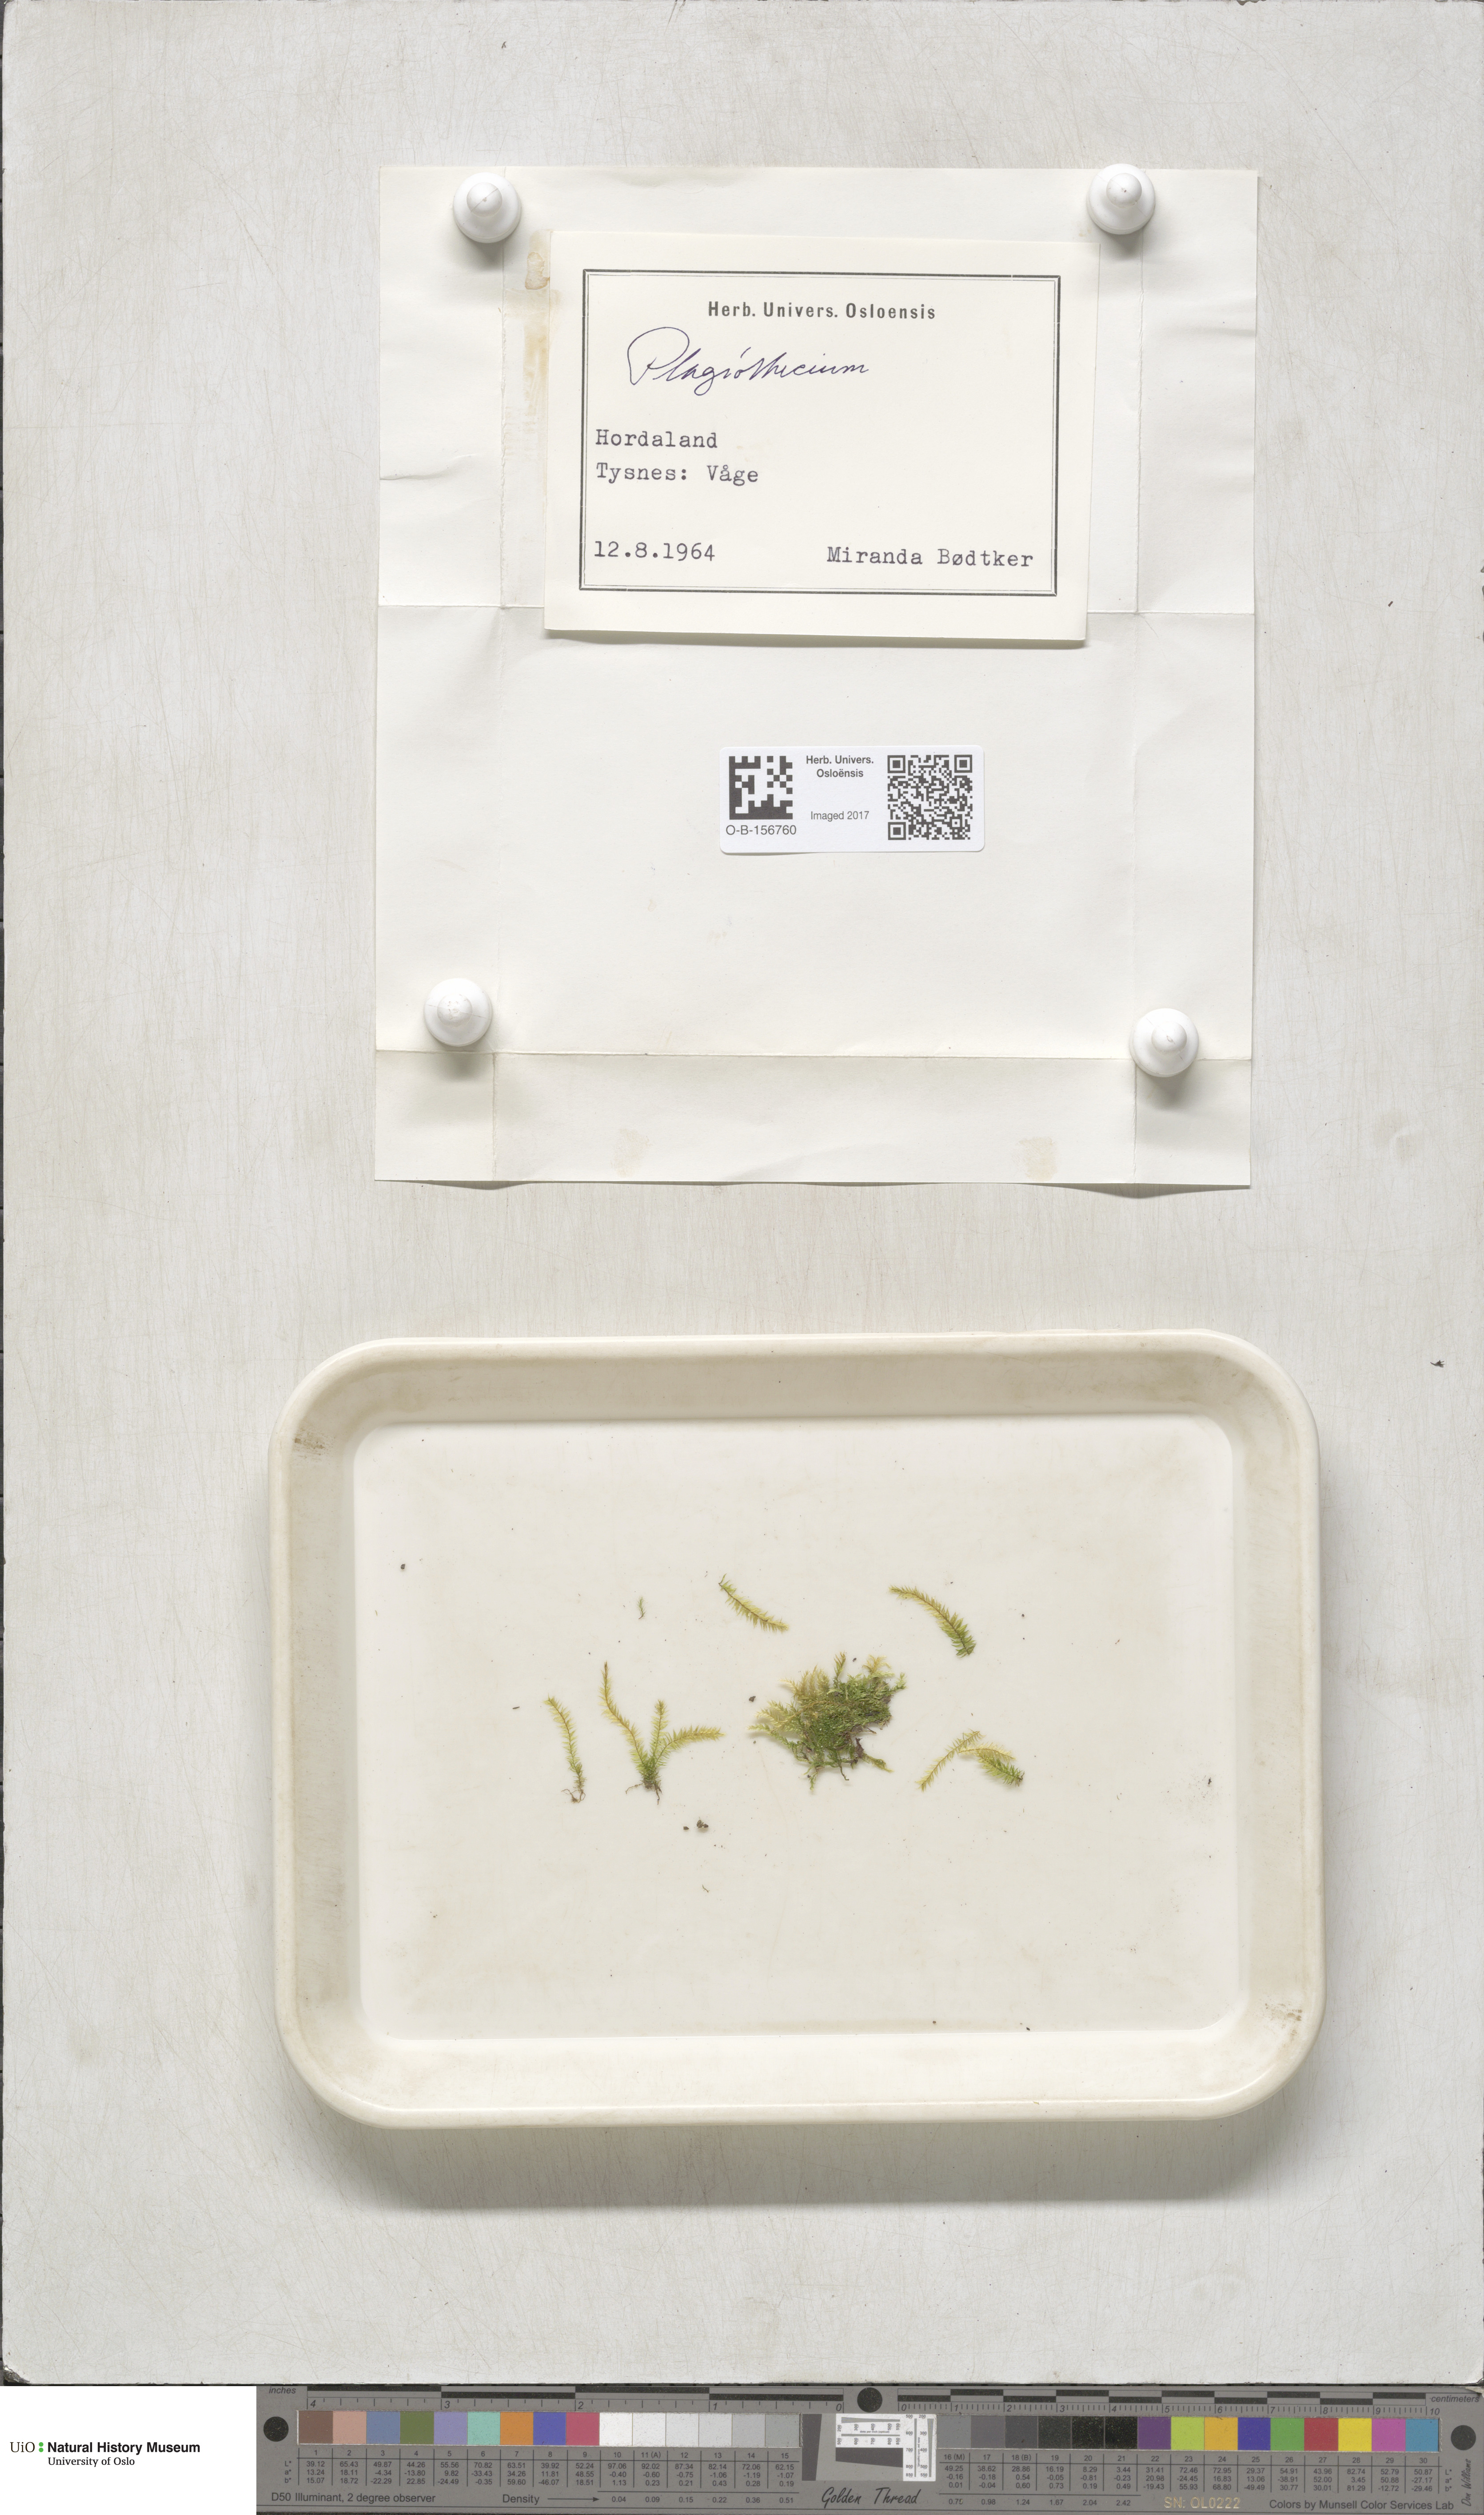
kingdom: Plantae
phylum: Bryophyta
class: Bryopsida
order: Hypnales
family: Plagiotheciaceae
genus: Plagiothecium
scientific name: Plagiothecium
